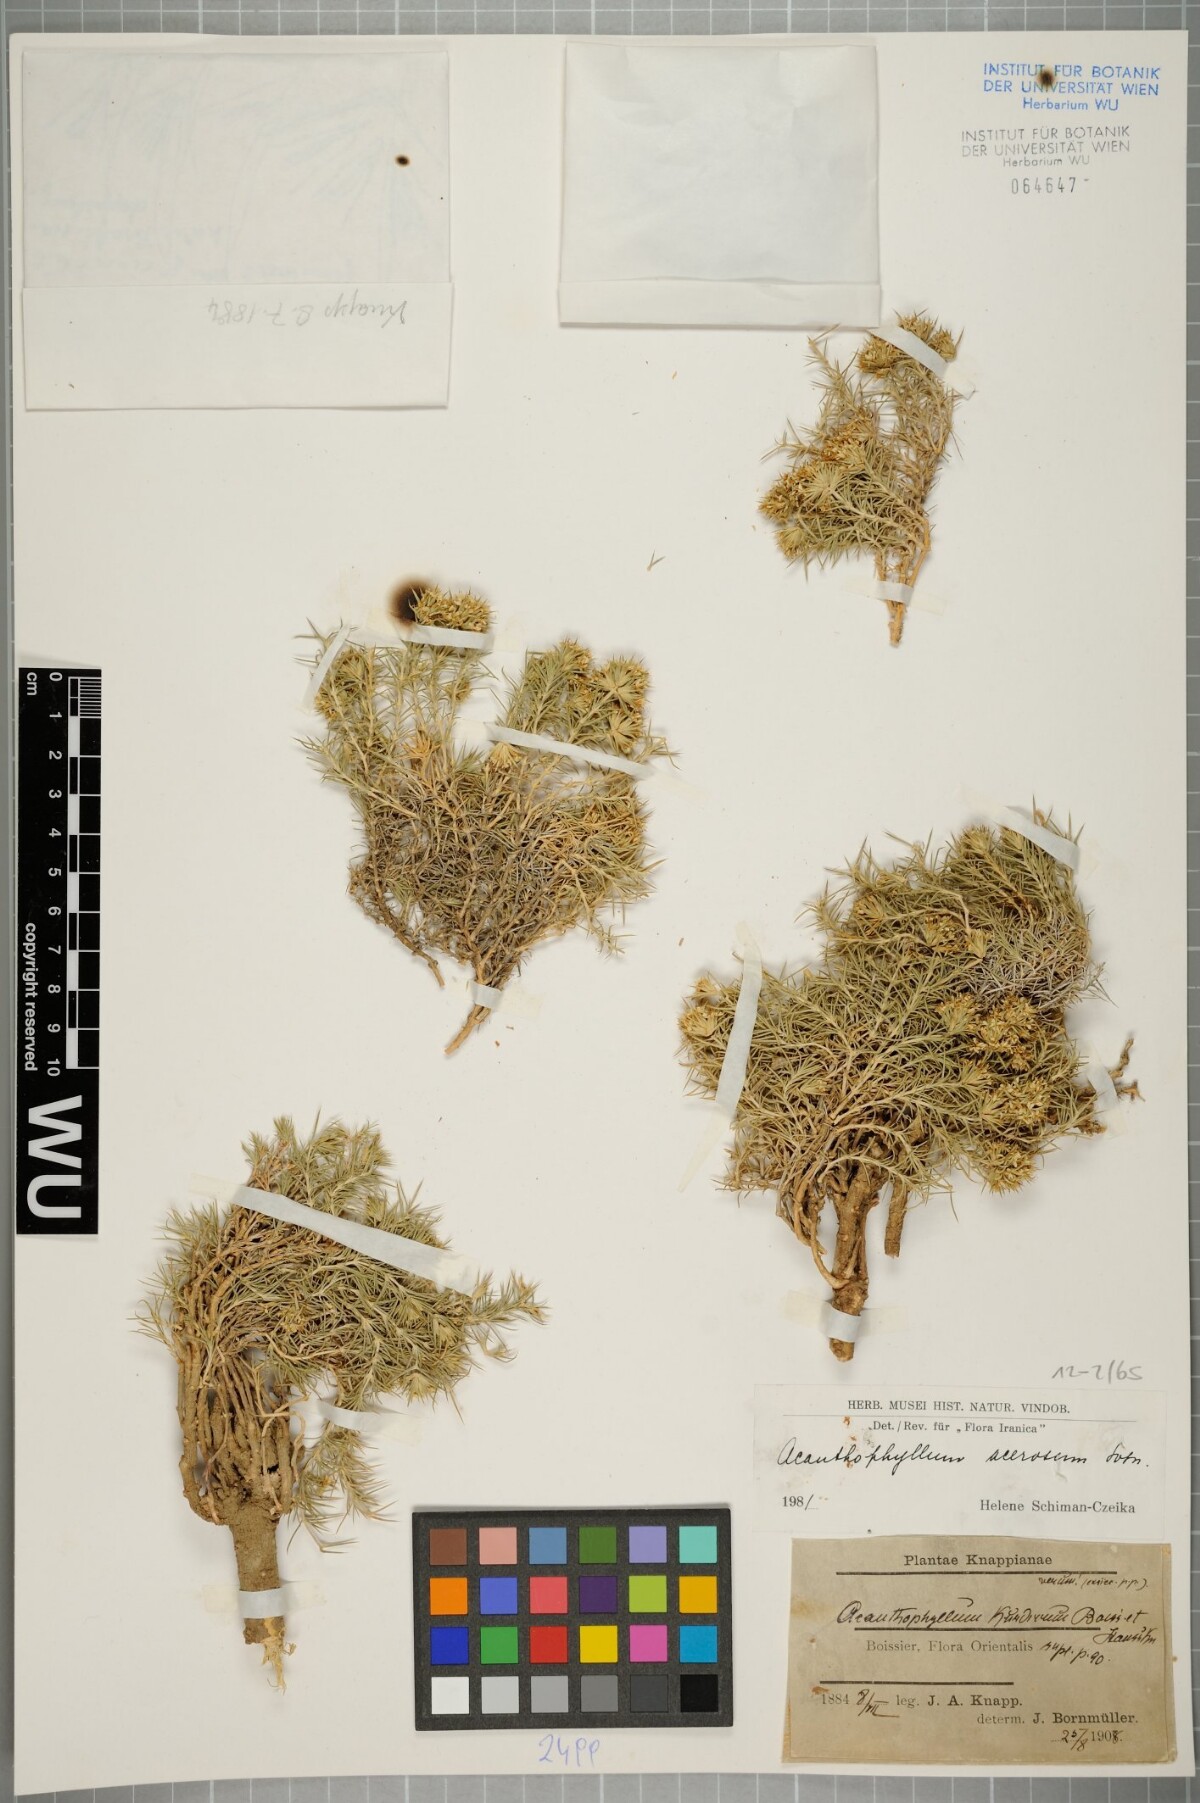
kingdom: Plantae
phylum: Tracheophyta
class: Magnoliopsida
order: Caryophyllales
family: Caryophyllaceae
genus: Acanthophyllum
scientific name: Acanthophyllum acerosum
